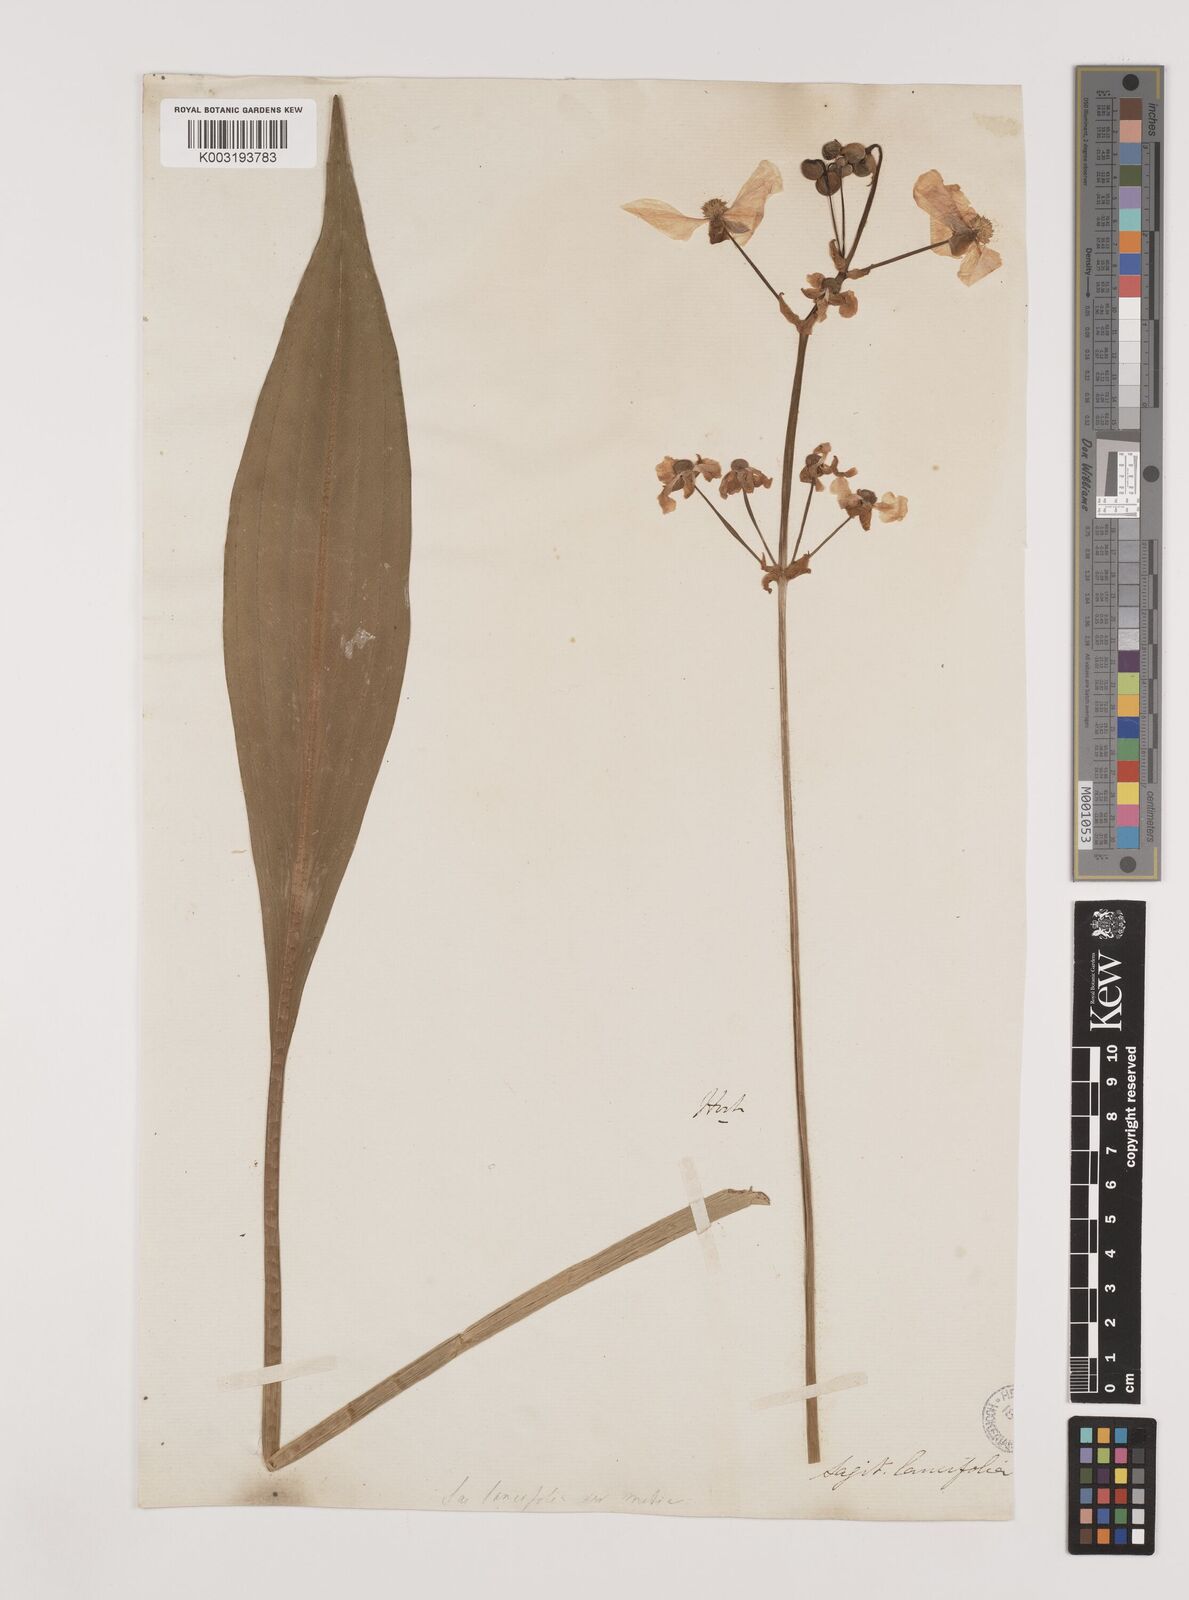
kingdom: Plantae
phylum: Tracheophyta
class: Liliopsida
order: Alismatales
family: Alismataceae
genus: Sagittaria
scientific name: Sagittaria lancifolia
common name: Lance-leaf arrowhead
